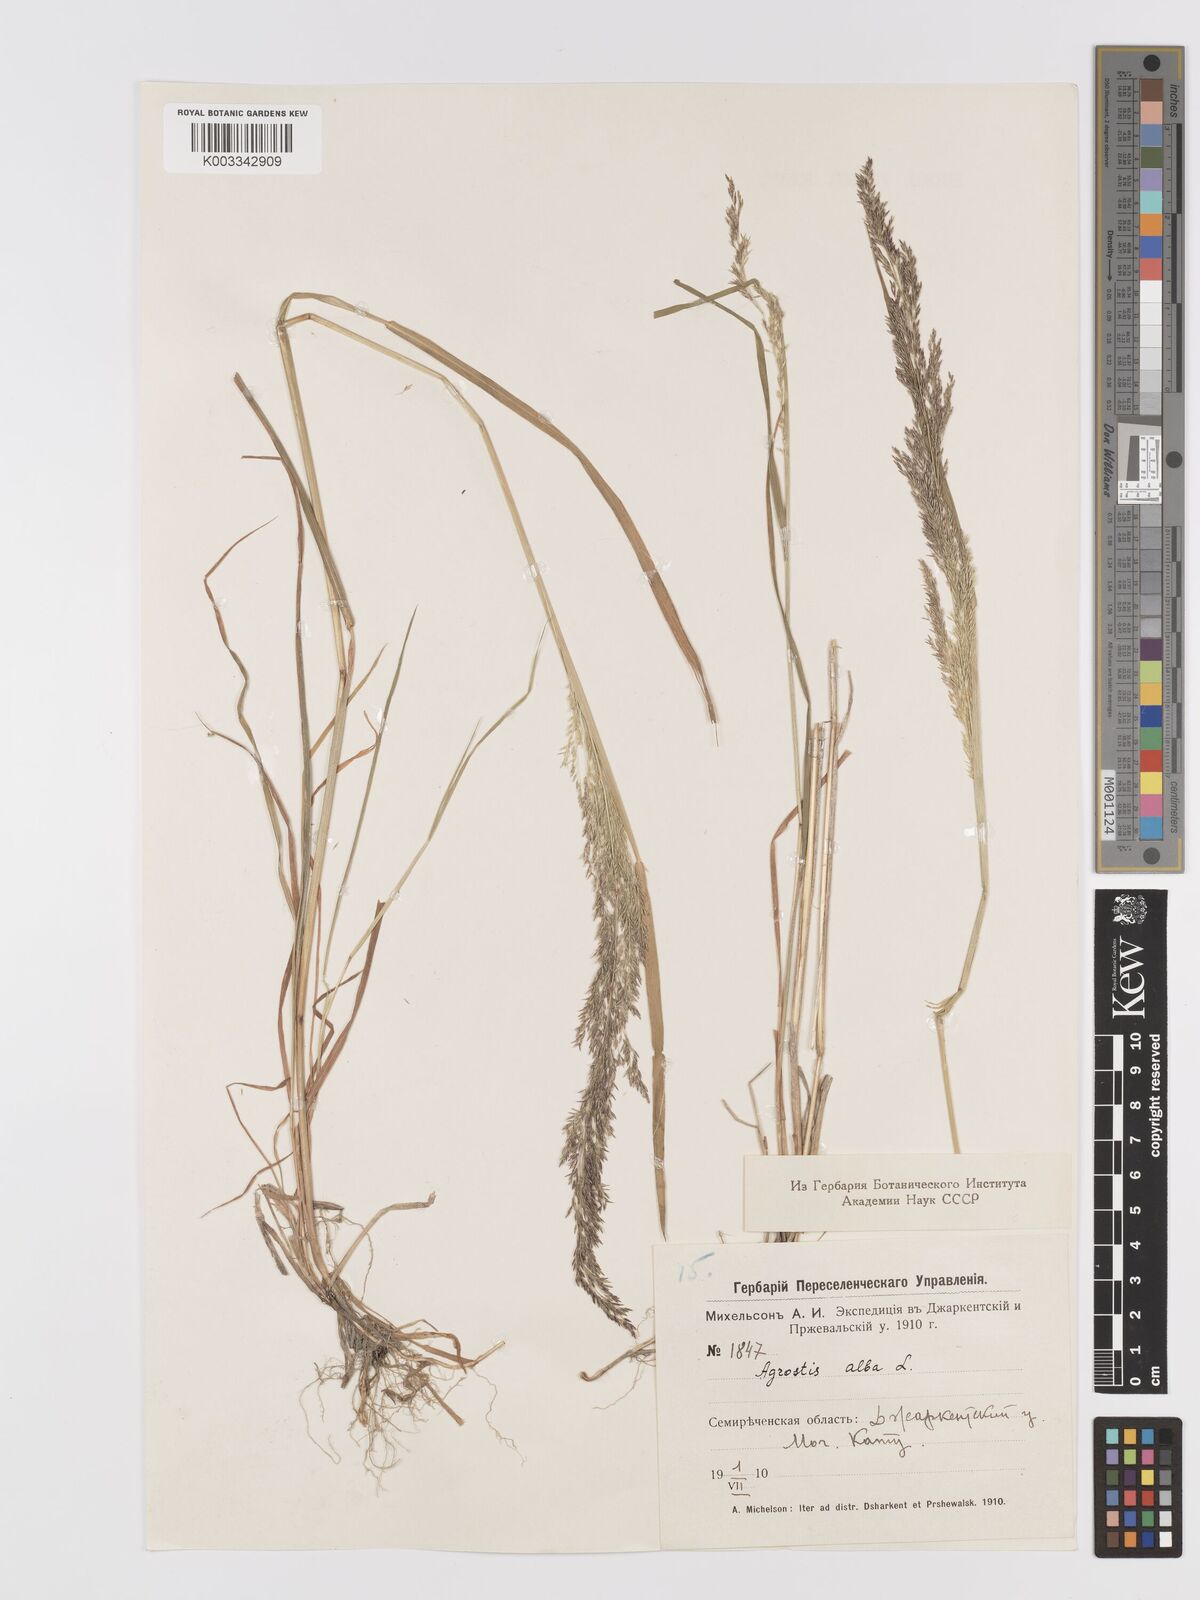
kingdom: Plantae
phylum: Tracheophyta
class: Liliopsida
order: Poales
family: Poaceae
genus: Agrostis
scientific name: Agrostis gigantea
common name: Black bent
